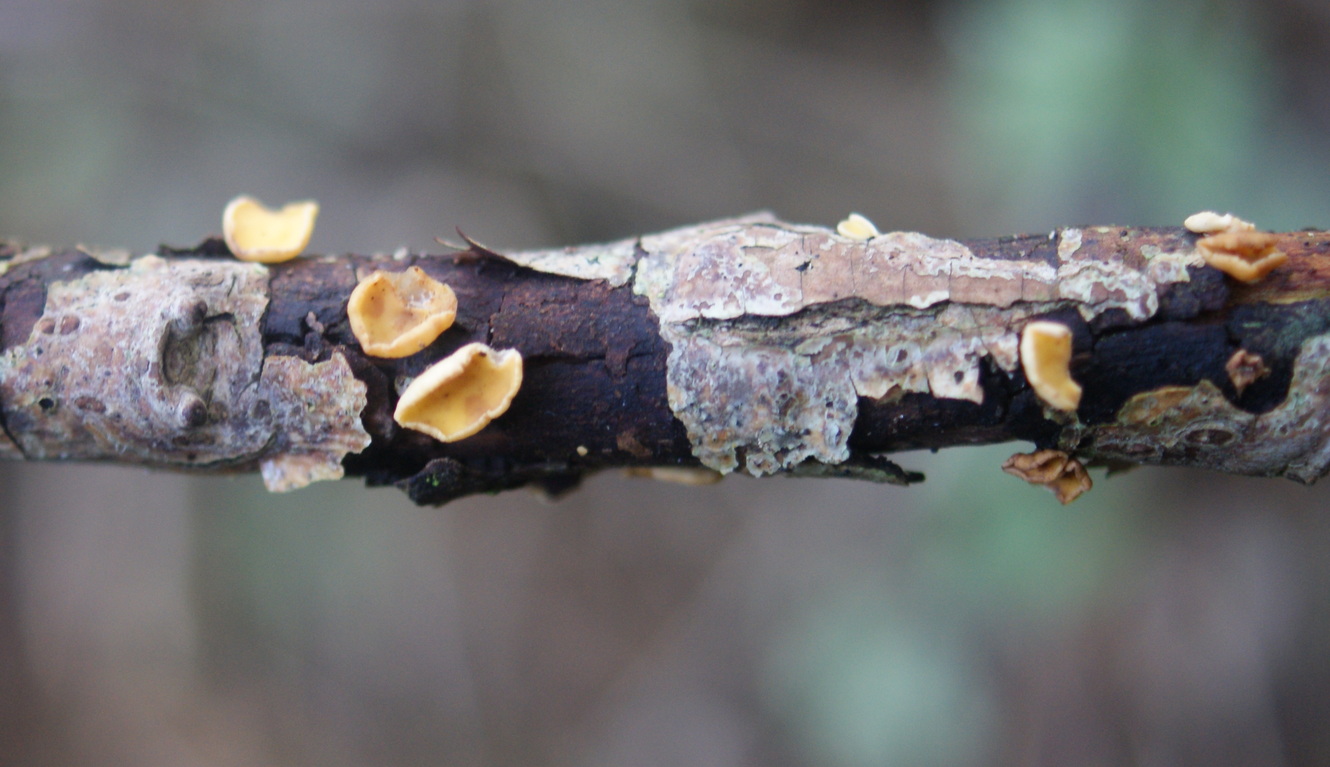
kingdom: Fungi
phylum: Ascomycota
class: Leotiomycetes
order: Helotiales
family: Helotiaceae
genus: Hymenoscyphus
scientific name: Hymenoscyphus calyculus
